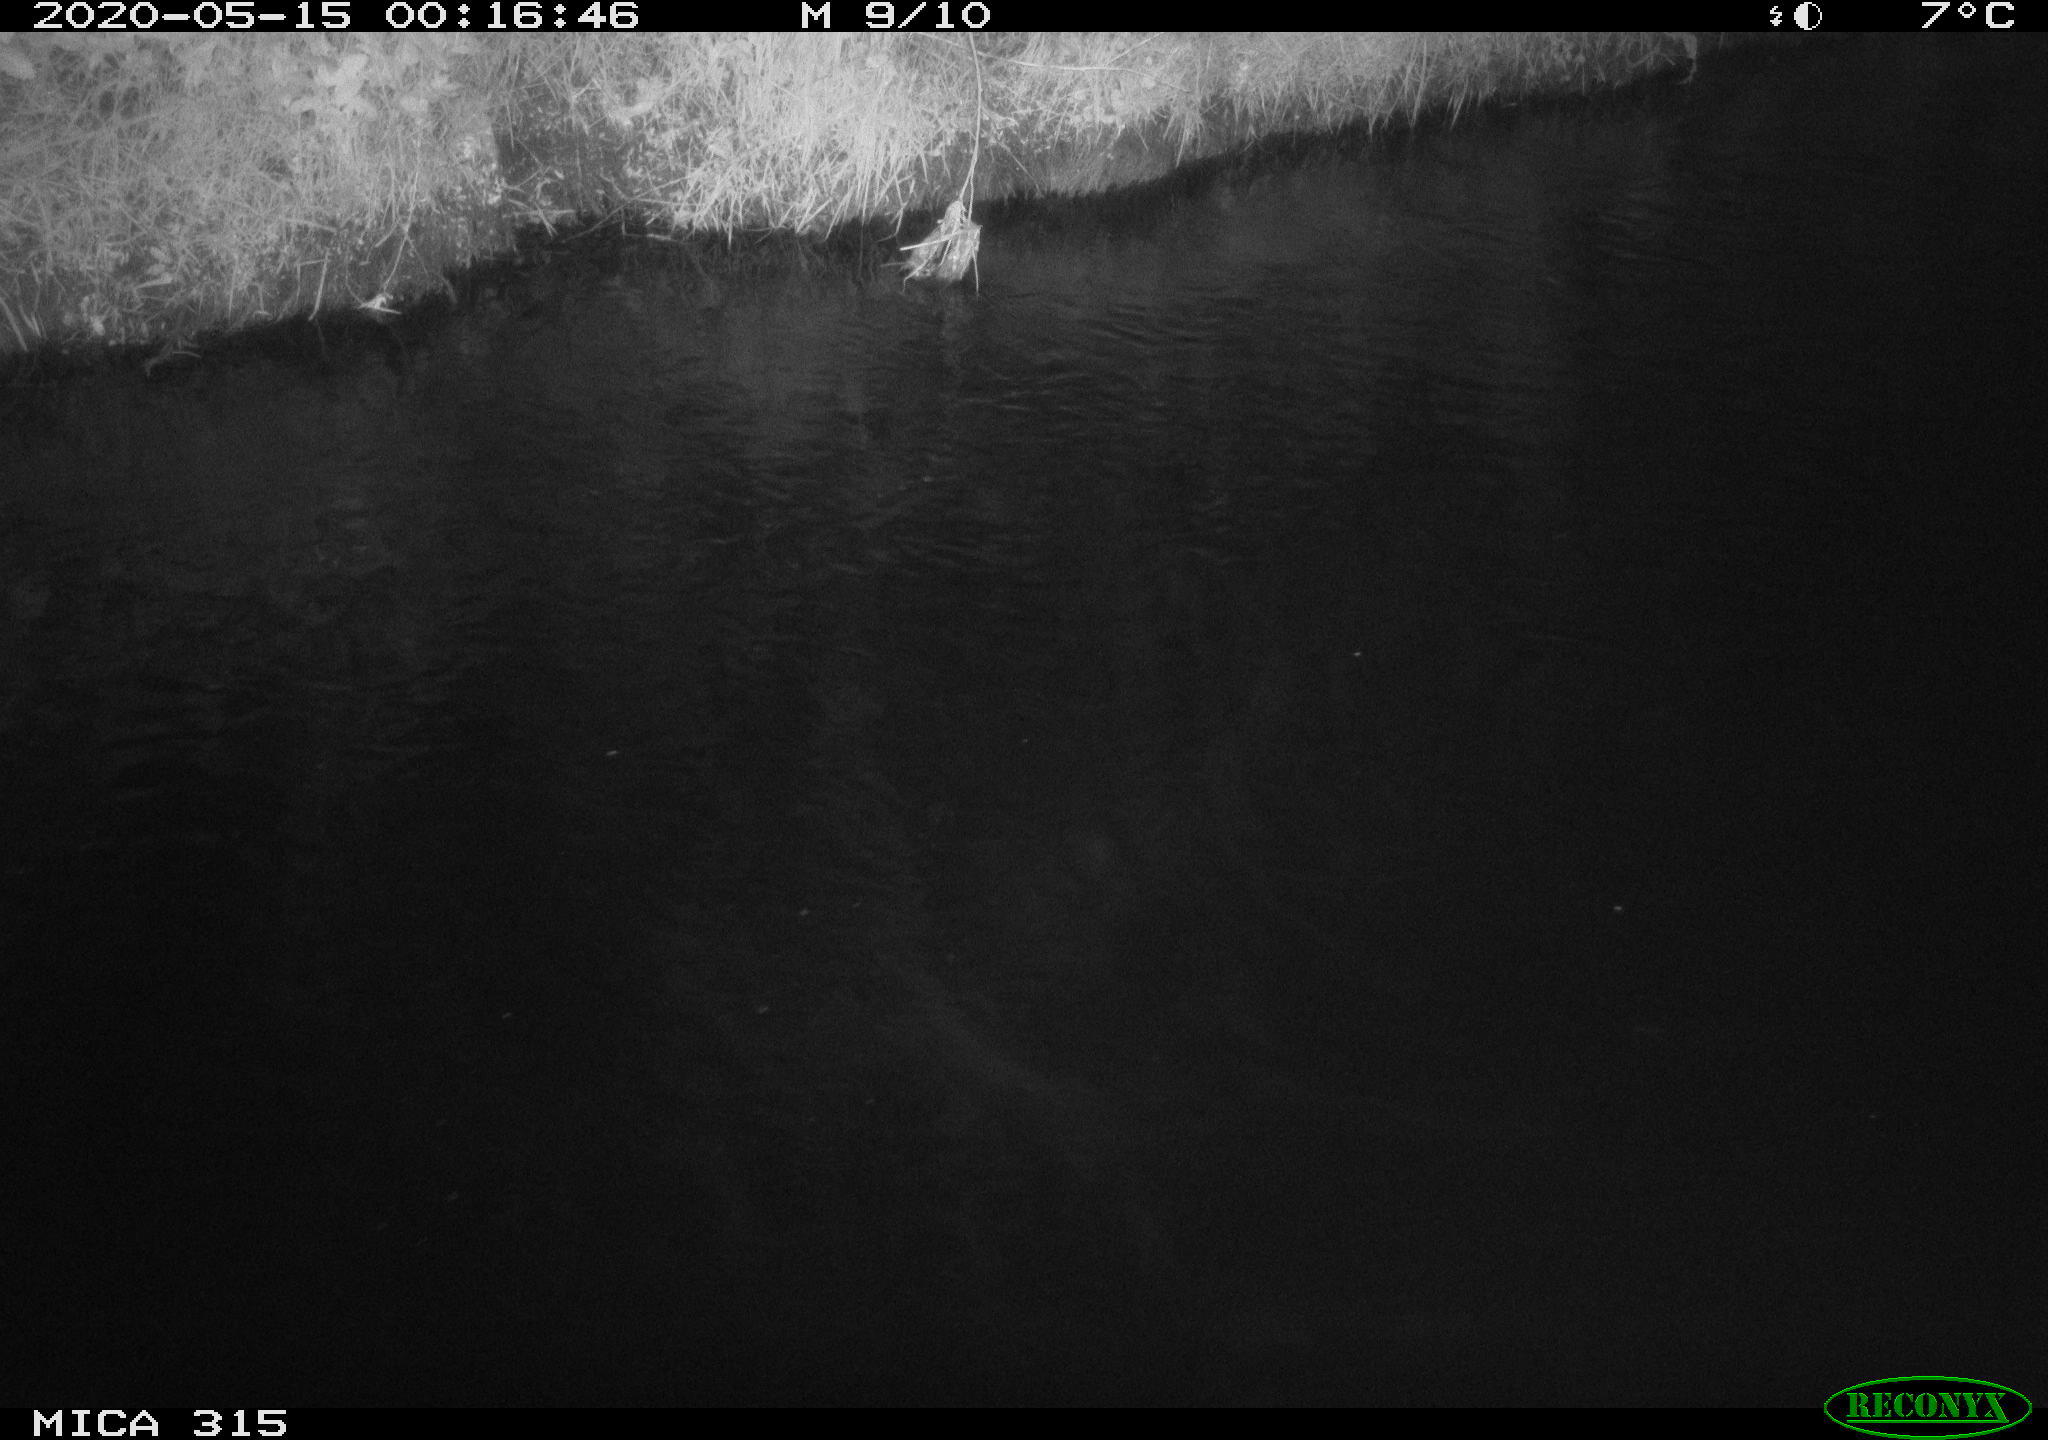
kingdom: Animalia
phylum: Chordata
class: Aves
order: Anseriformes
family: Anatidae
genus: Anas
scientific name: Anas platyrhynchos
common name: Mallard
